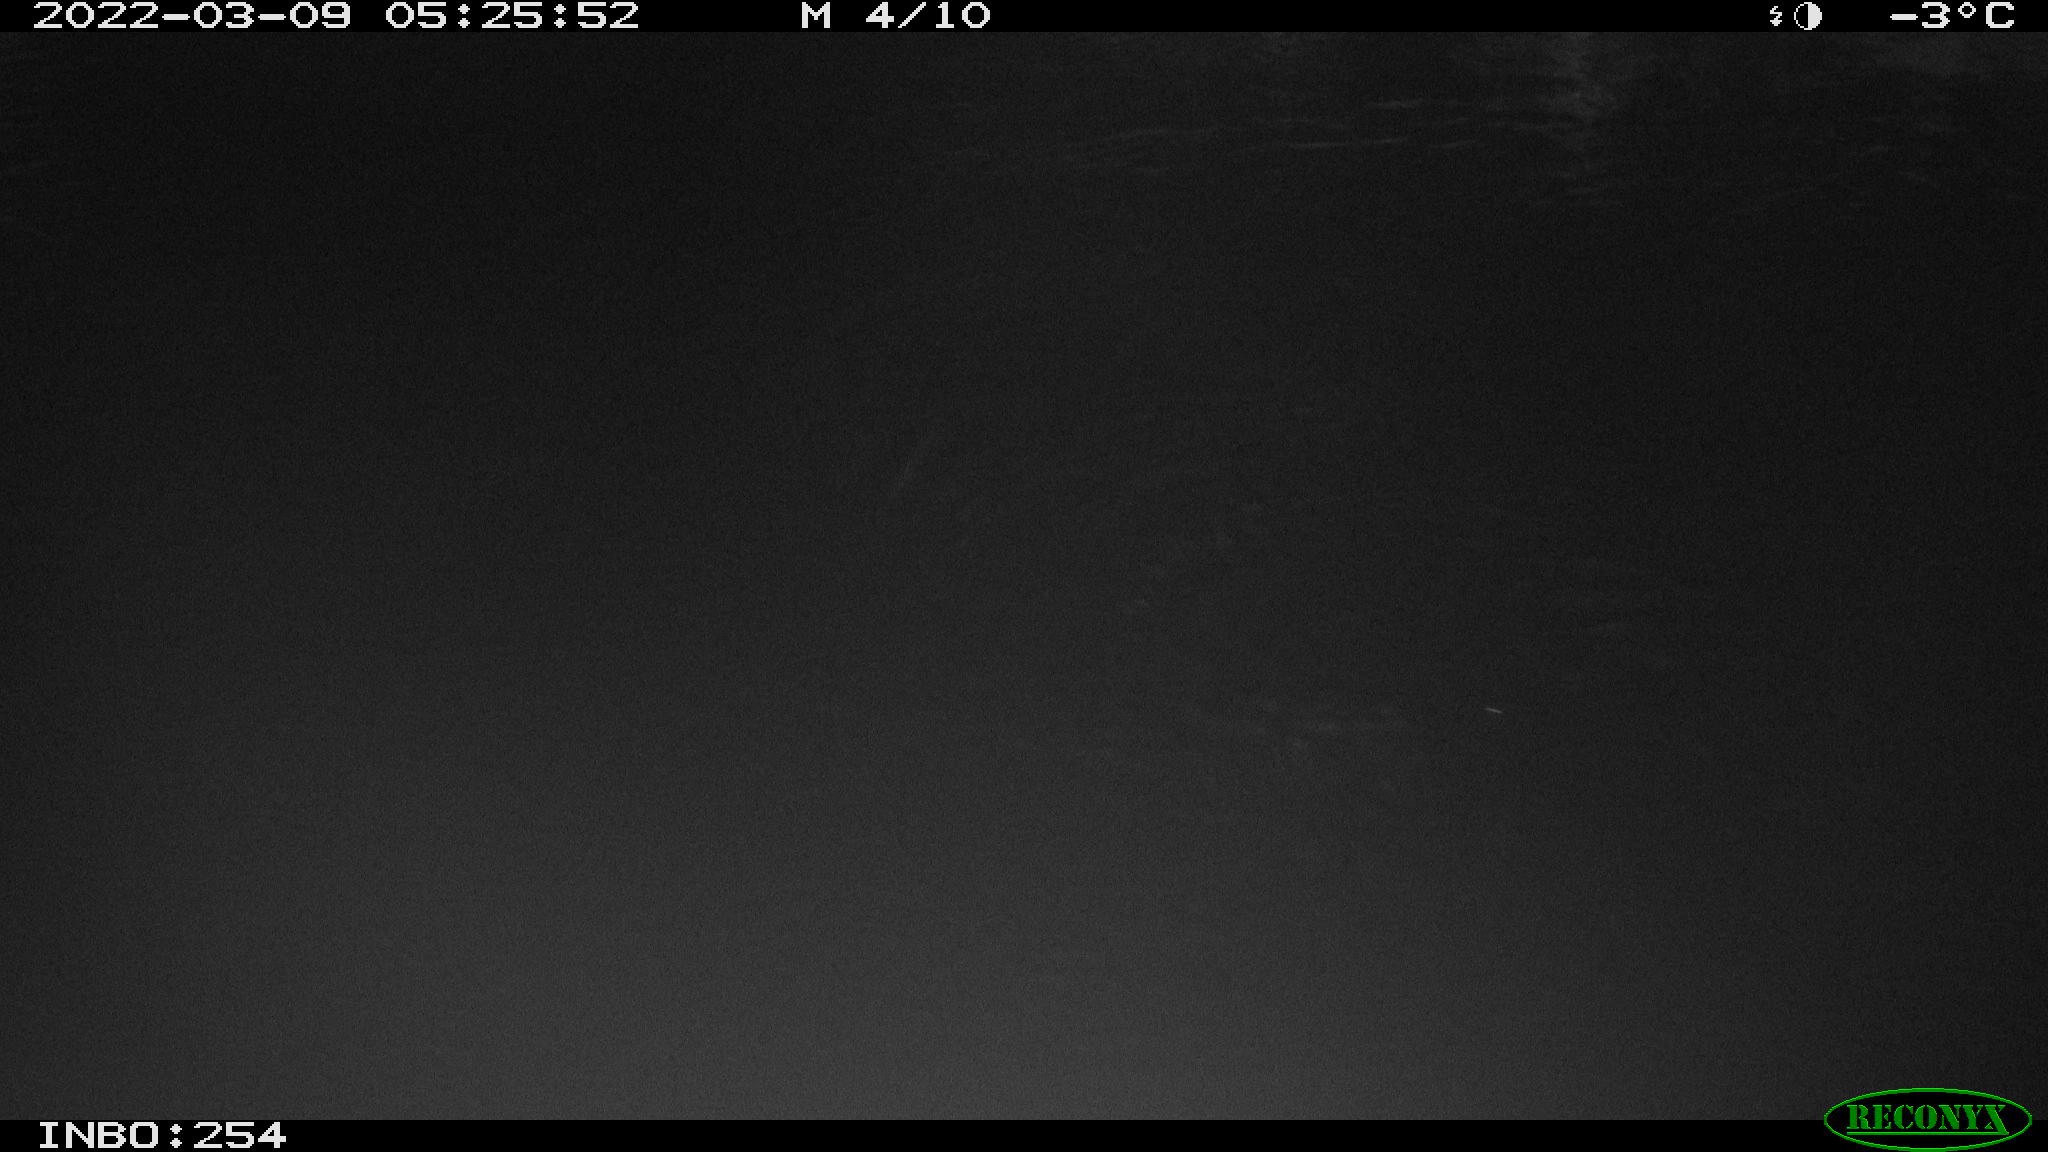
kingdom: Animalia
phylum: Chordata
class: Aves
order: Anseriformes
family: Anatidae
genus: Anas
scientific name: Anas platyrhynchos
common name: Mallard
